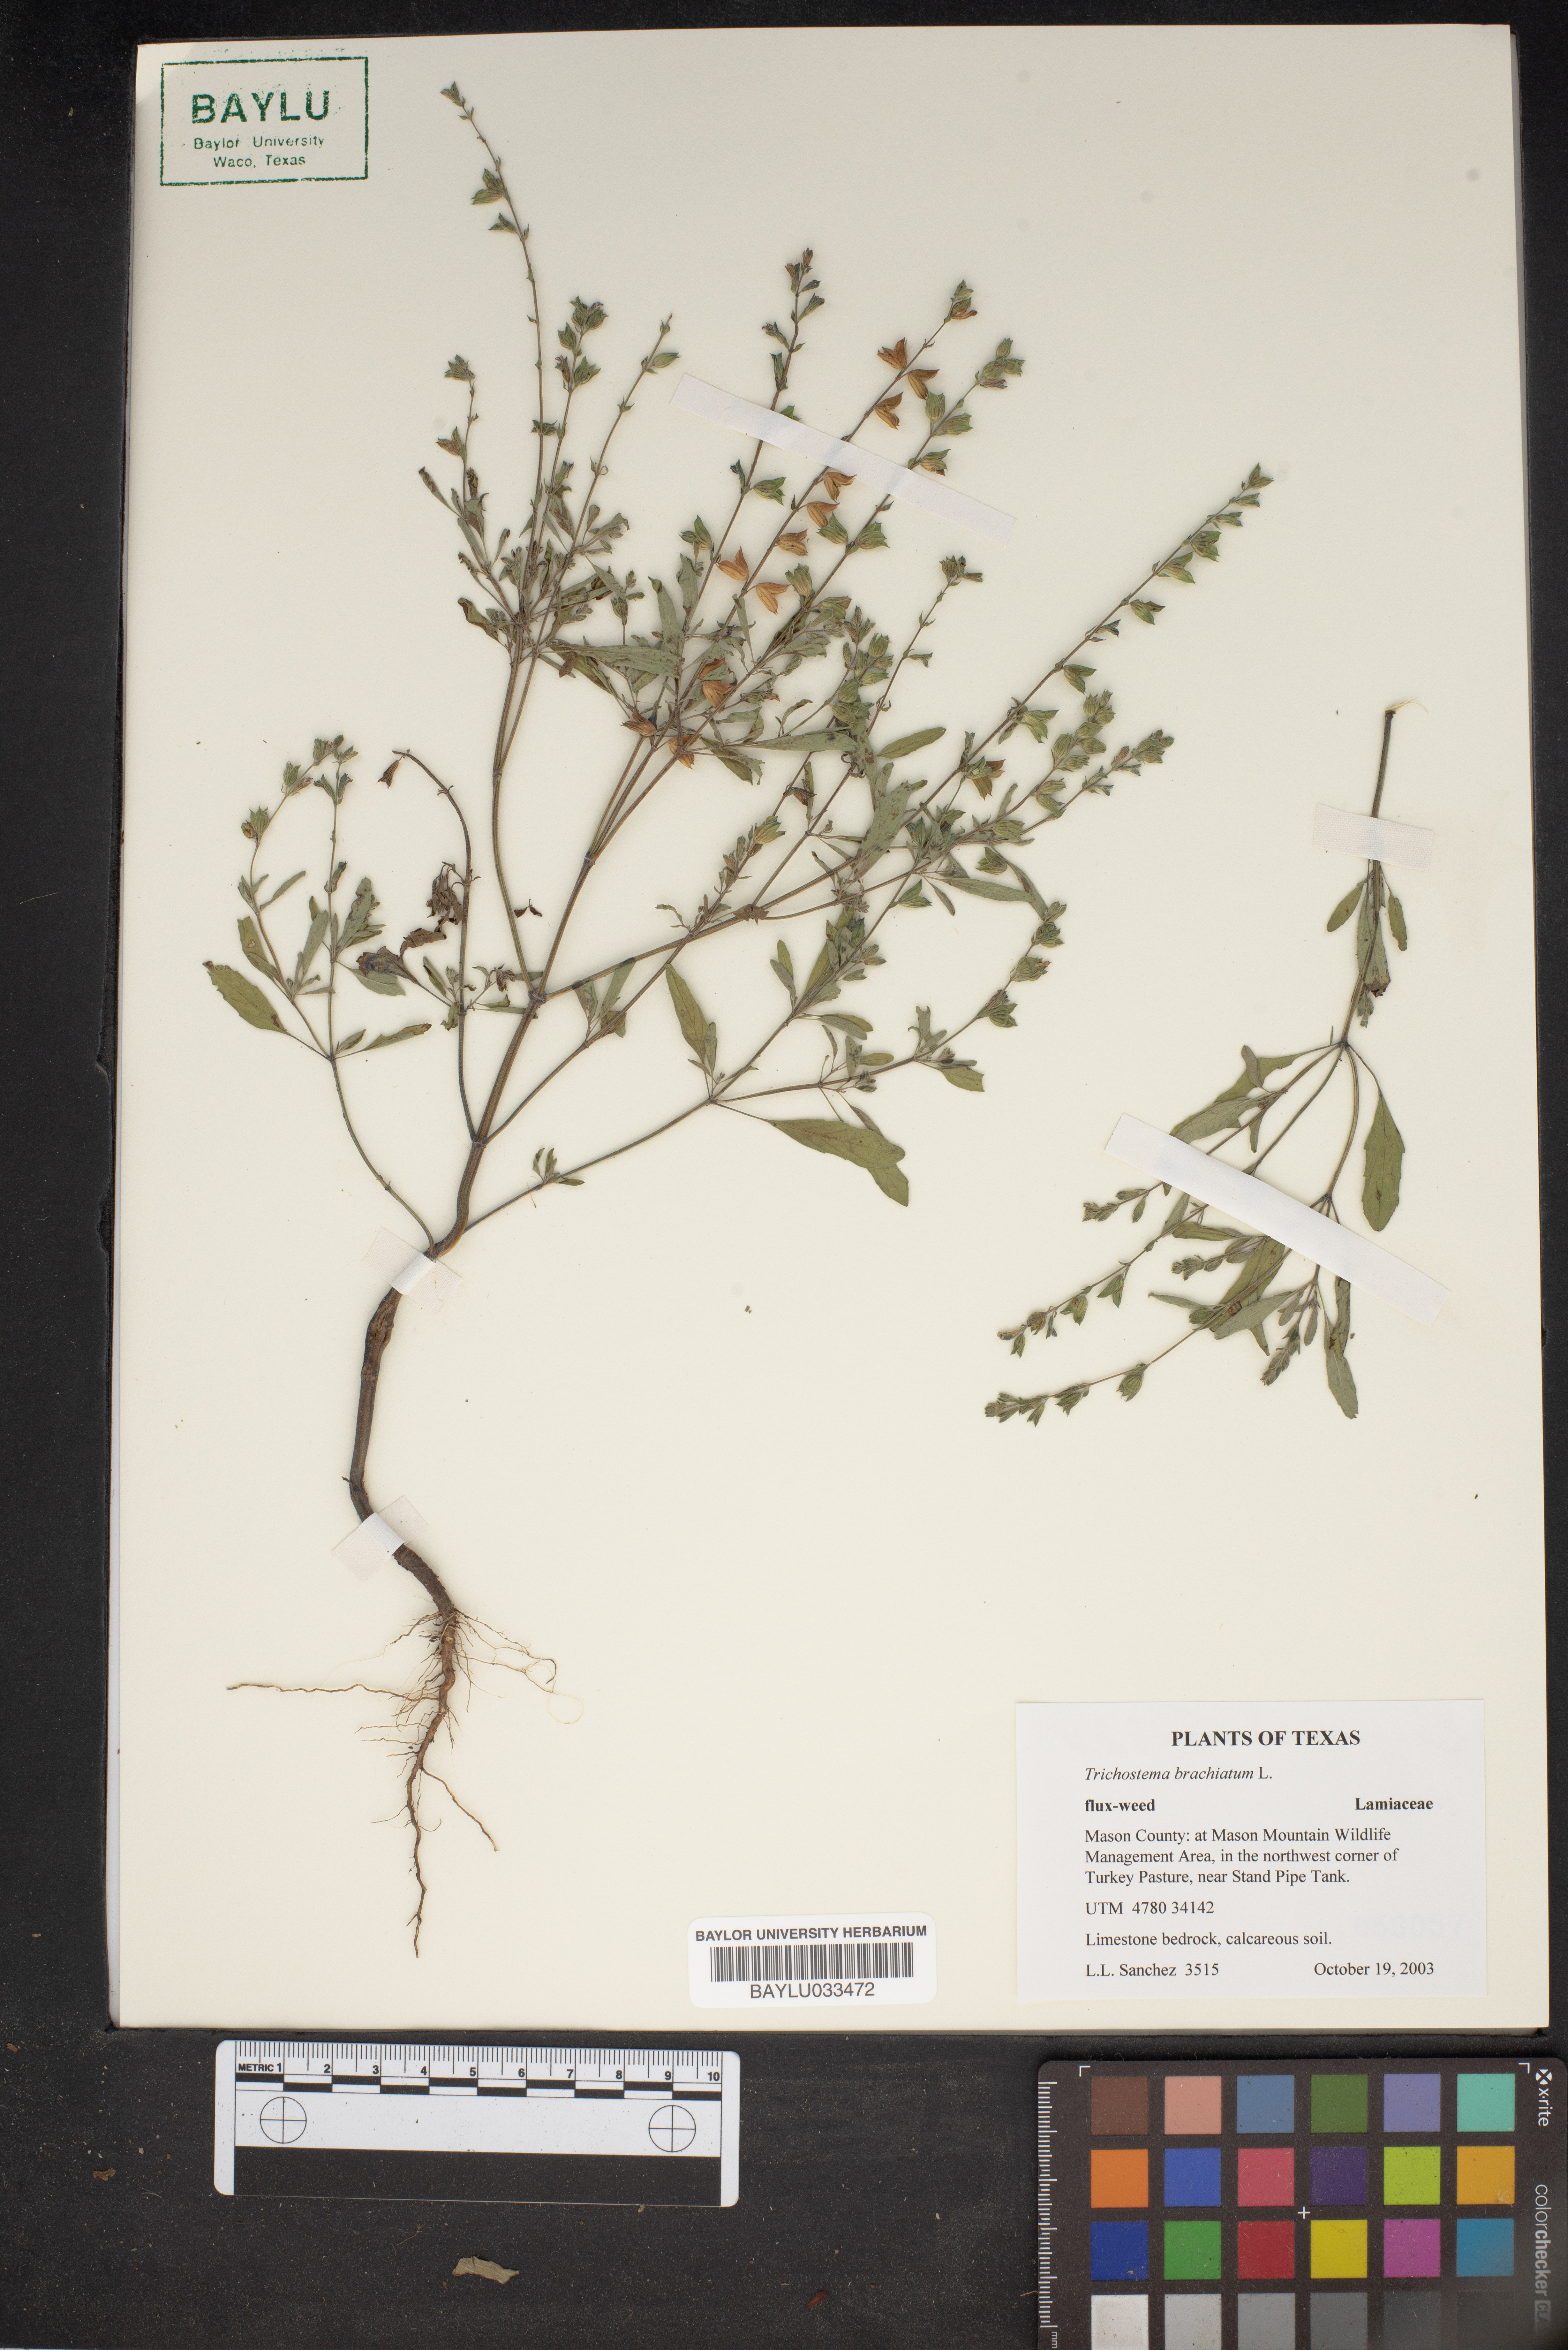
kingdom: Plantae
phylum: Tracheophyta
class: Magnoliopsida
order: Lamiales
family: Lamiaceae
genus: Trichostema
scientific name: Trichostema brachiatum
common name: False pennyroyal
